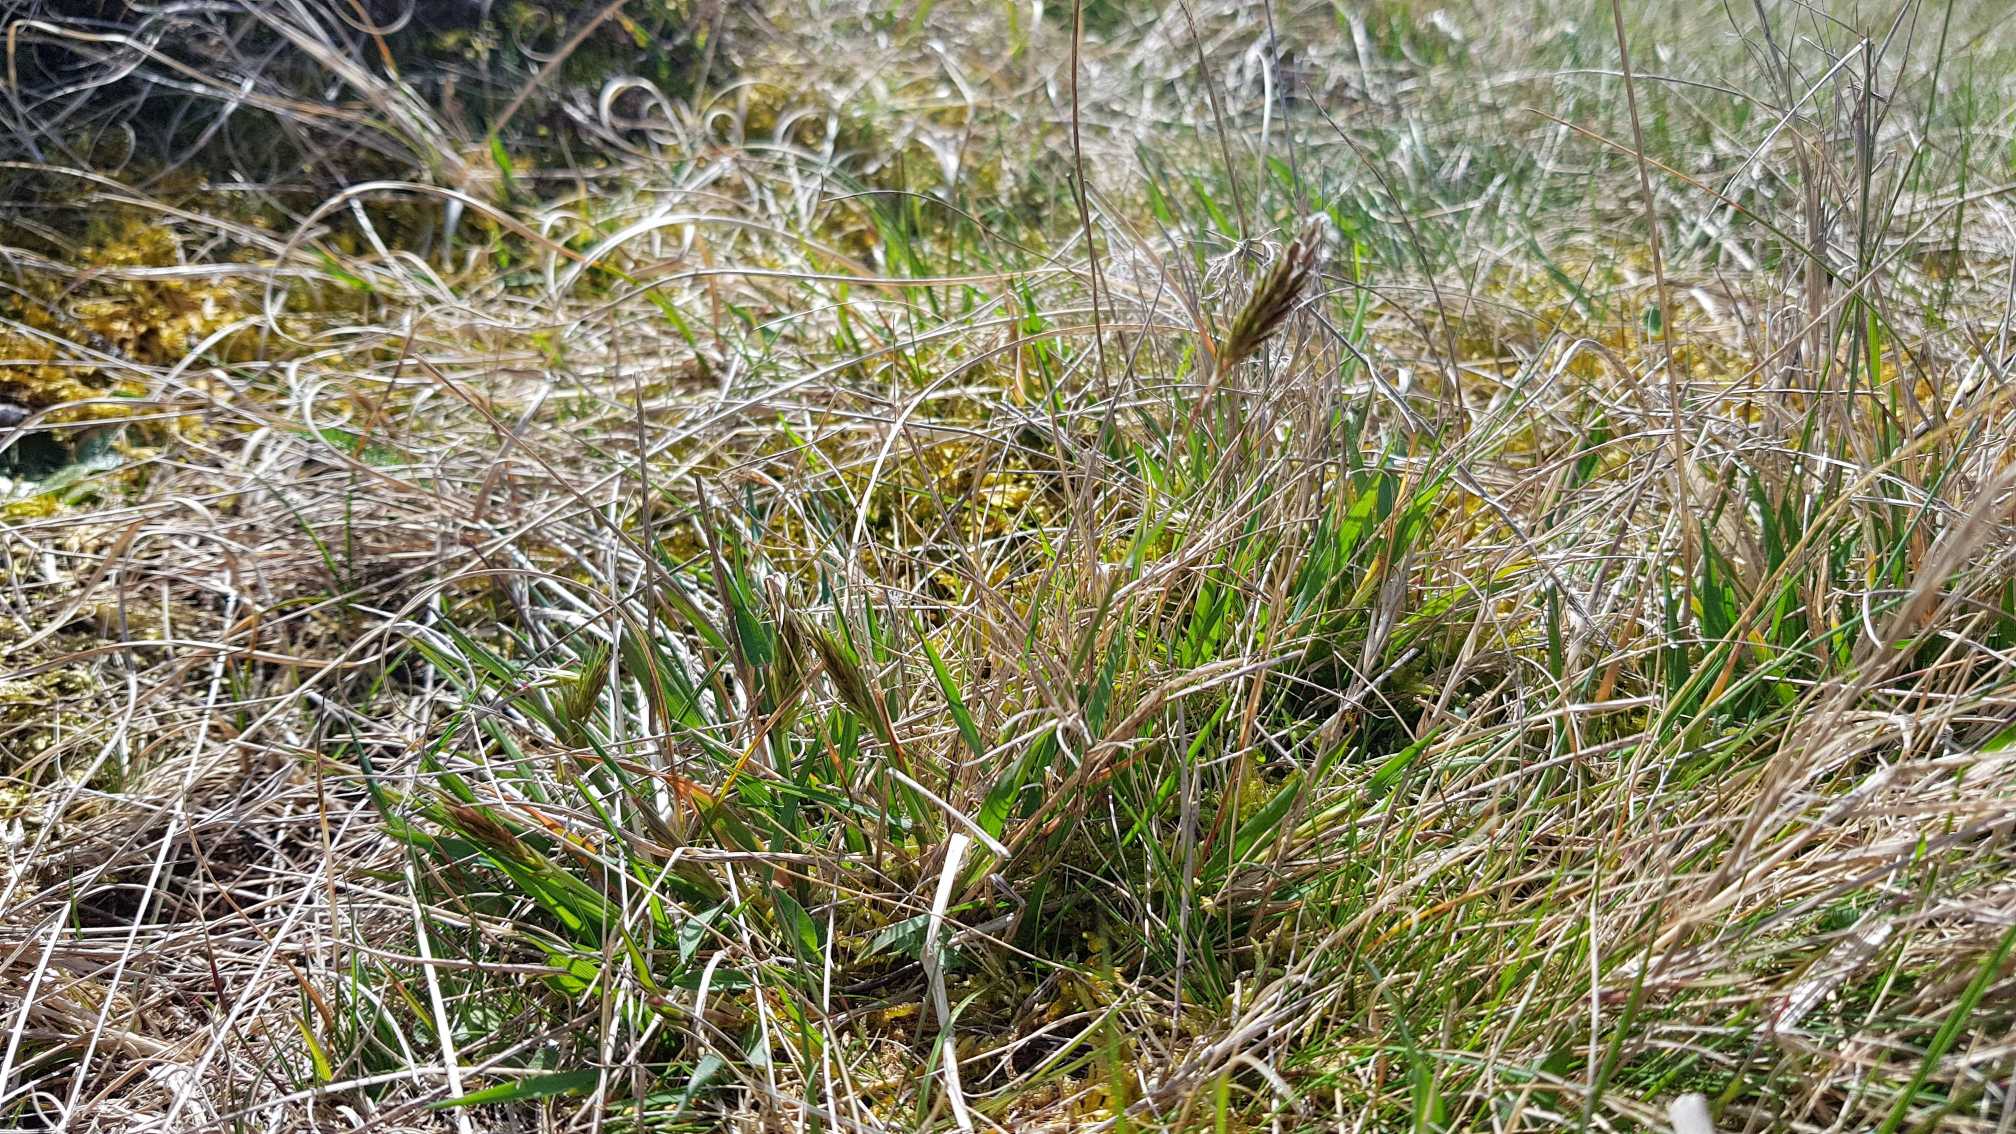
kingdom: Plantae
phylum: Tracheophyta
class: Liliopsida
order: Poales
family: Poaceae
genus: Anthoxanthum
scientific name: Anthoxanthum odoratum
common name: Vellugtende gulaks
